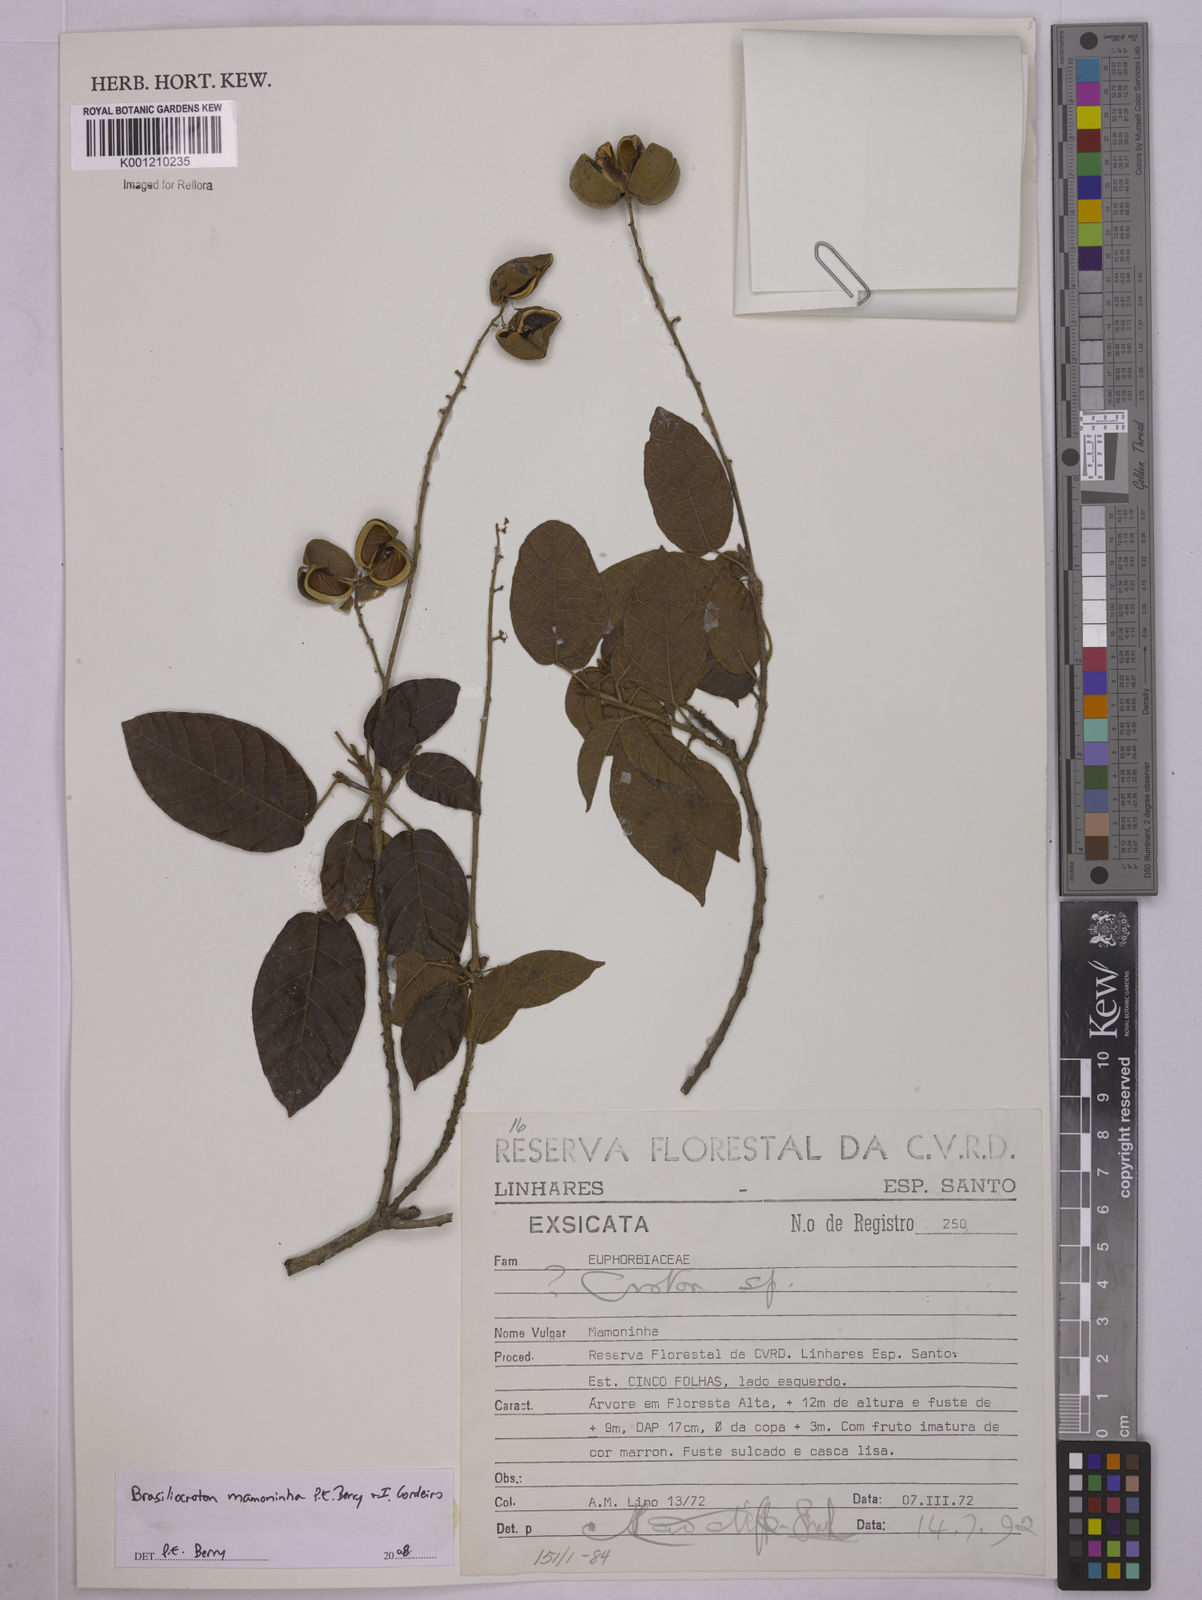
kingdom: Plantae
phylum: Tracheophyta
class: Magnoliopsida
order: Malpighiales
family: Euphorbiaceae
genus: Brasiliocroton
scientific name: Brasiliocroton mamoninha
